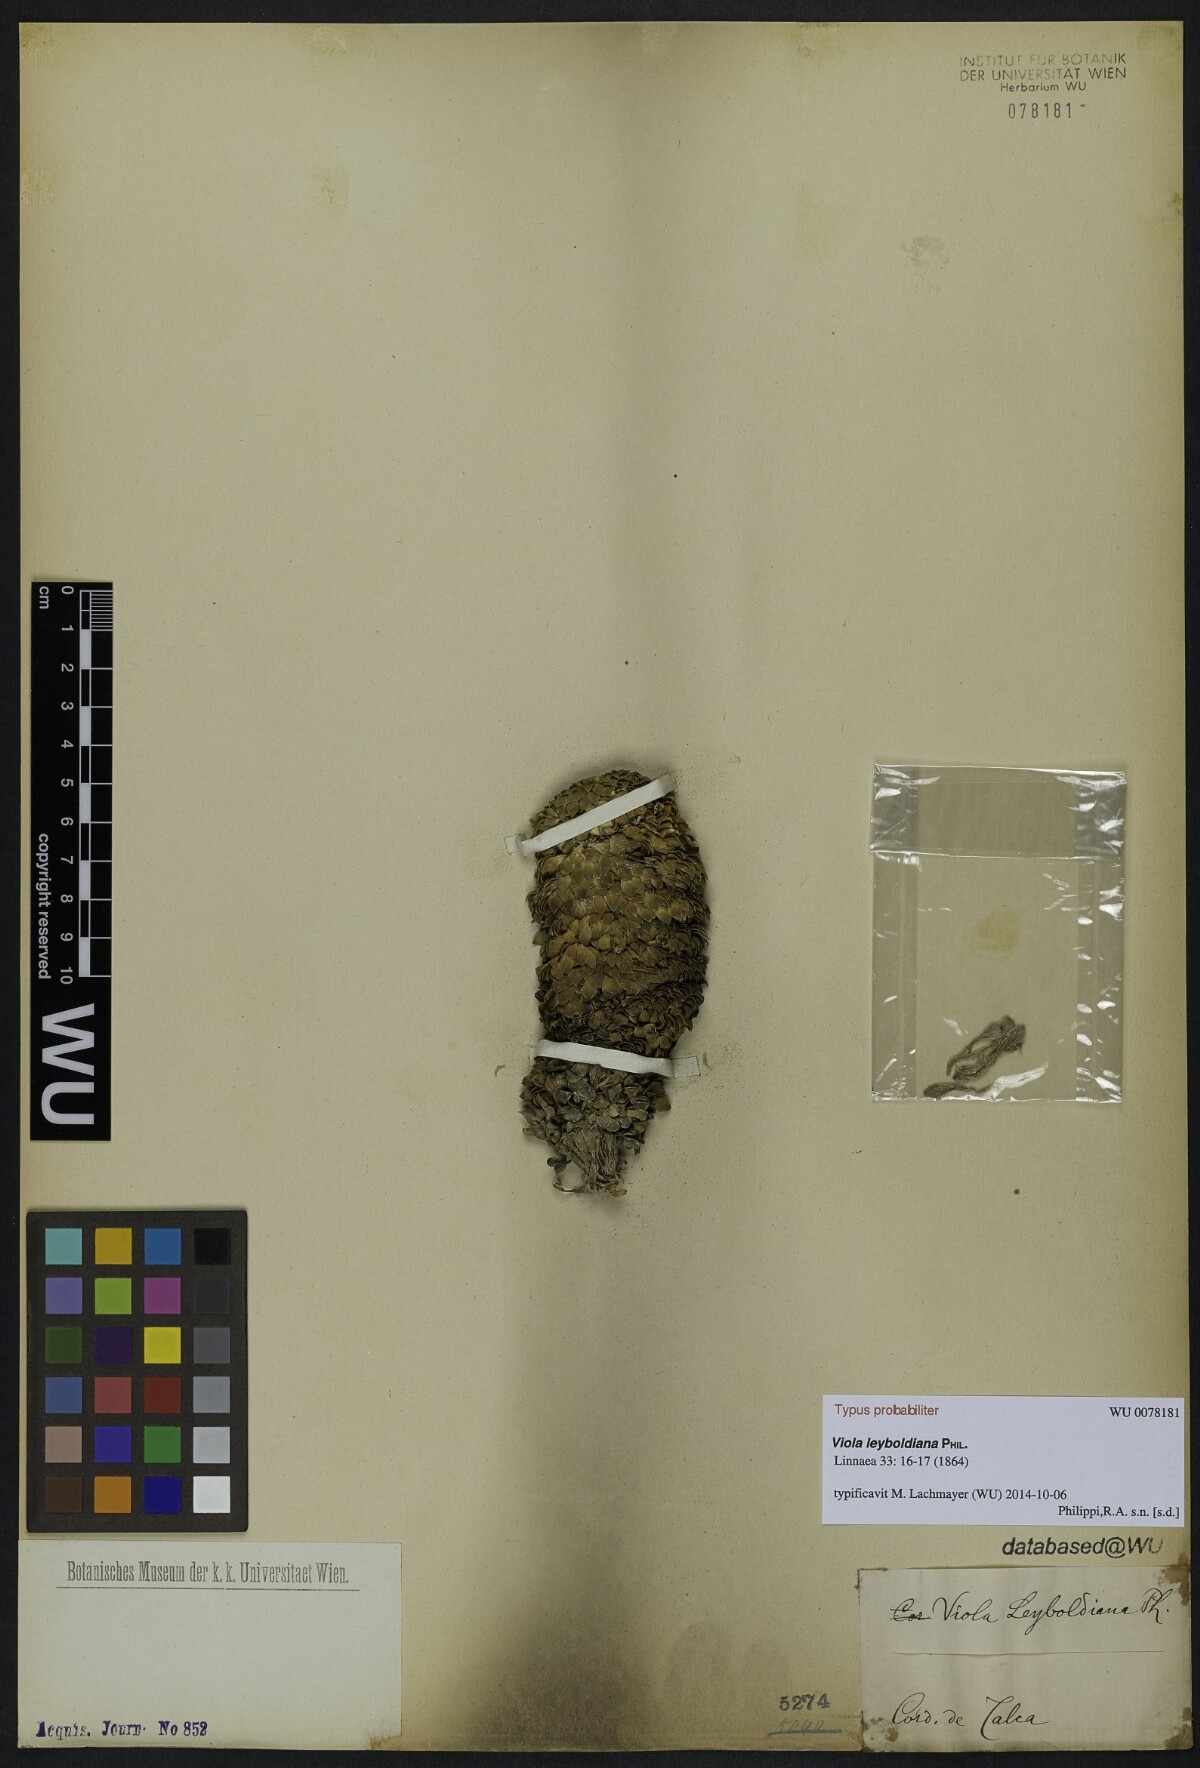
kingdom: Plantae
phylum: Tracheophyta
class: Magnoliopsida
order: Malpighiales
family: Violaceae
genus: Viola
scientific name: Viola leyboldiana
